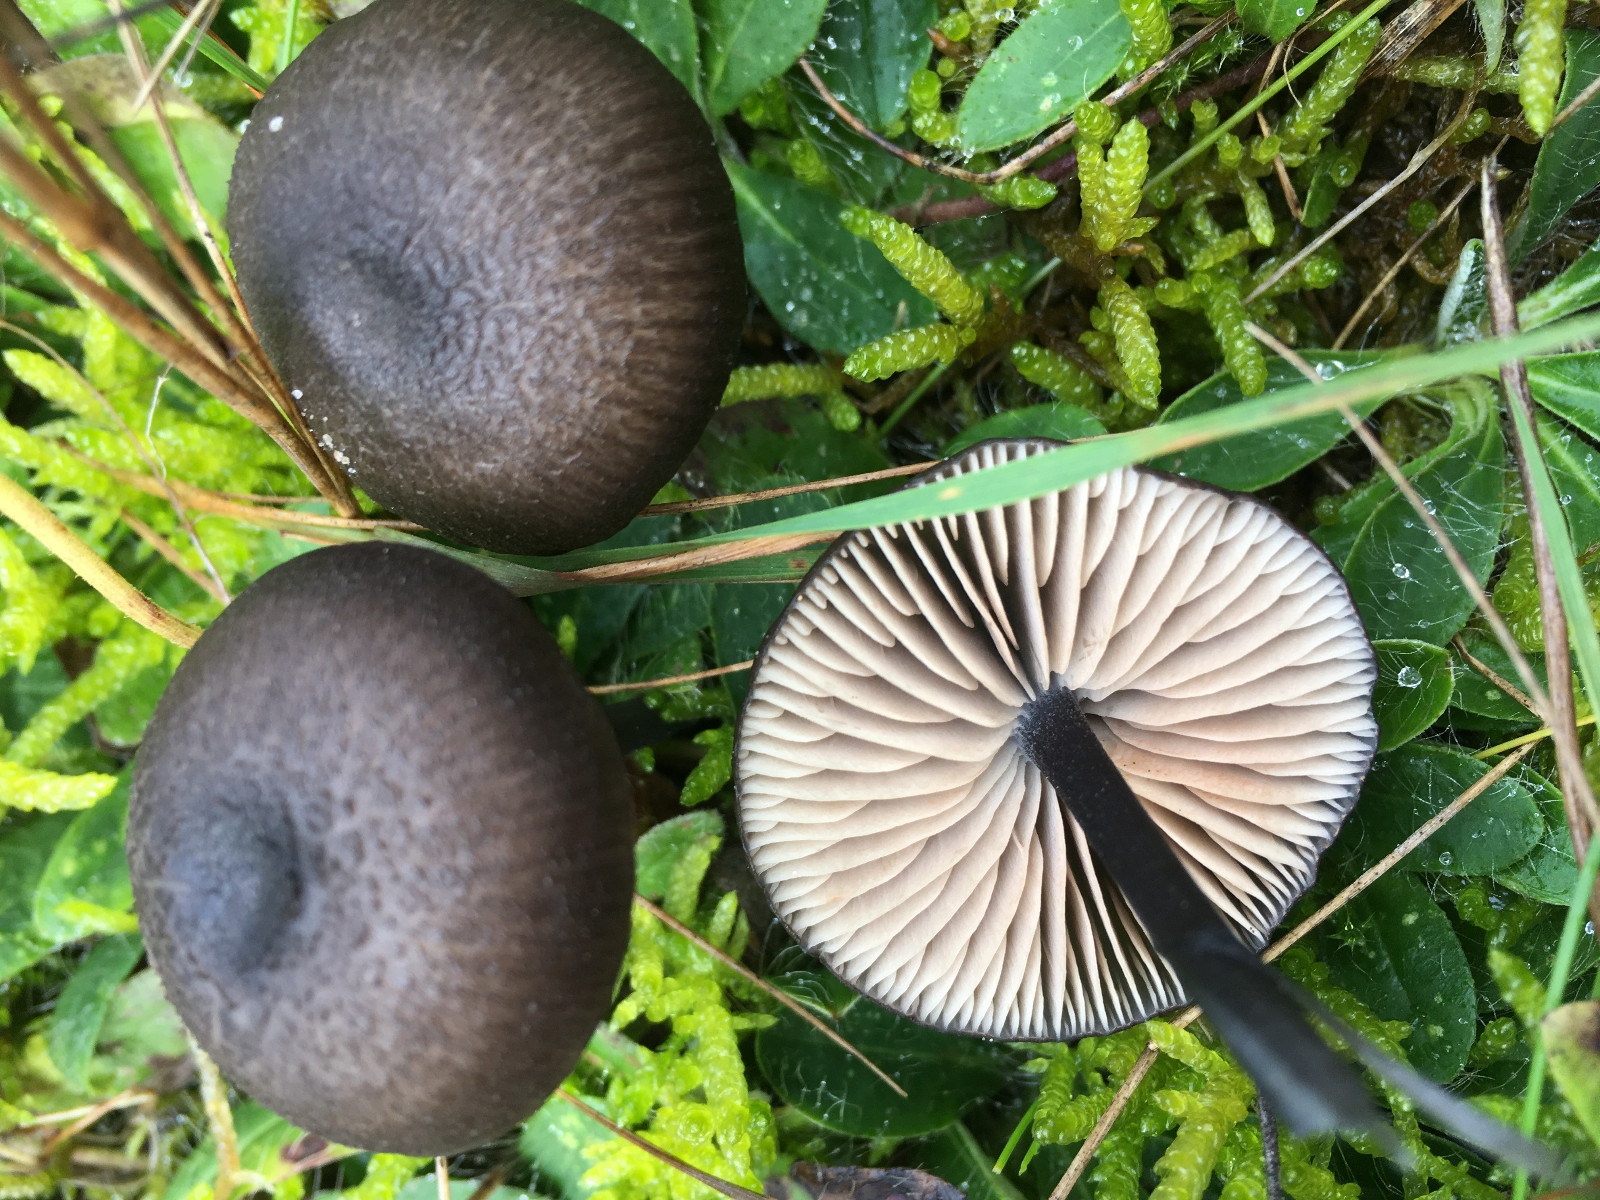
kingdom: Fungi
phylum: Basidiomycota
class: Agaricomycetes
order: Agaricales
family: Entolomataceae
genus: Entoloma
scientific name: Entoloma
